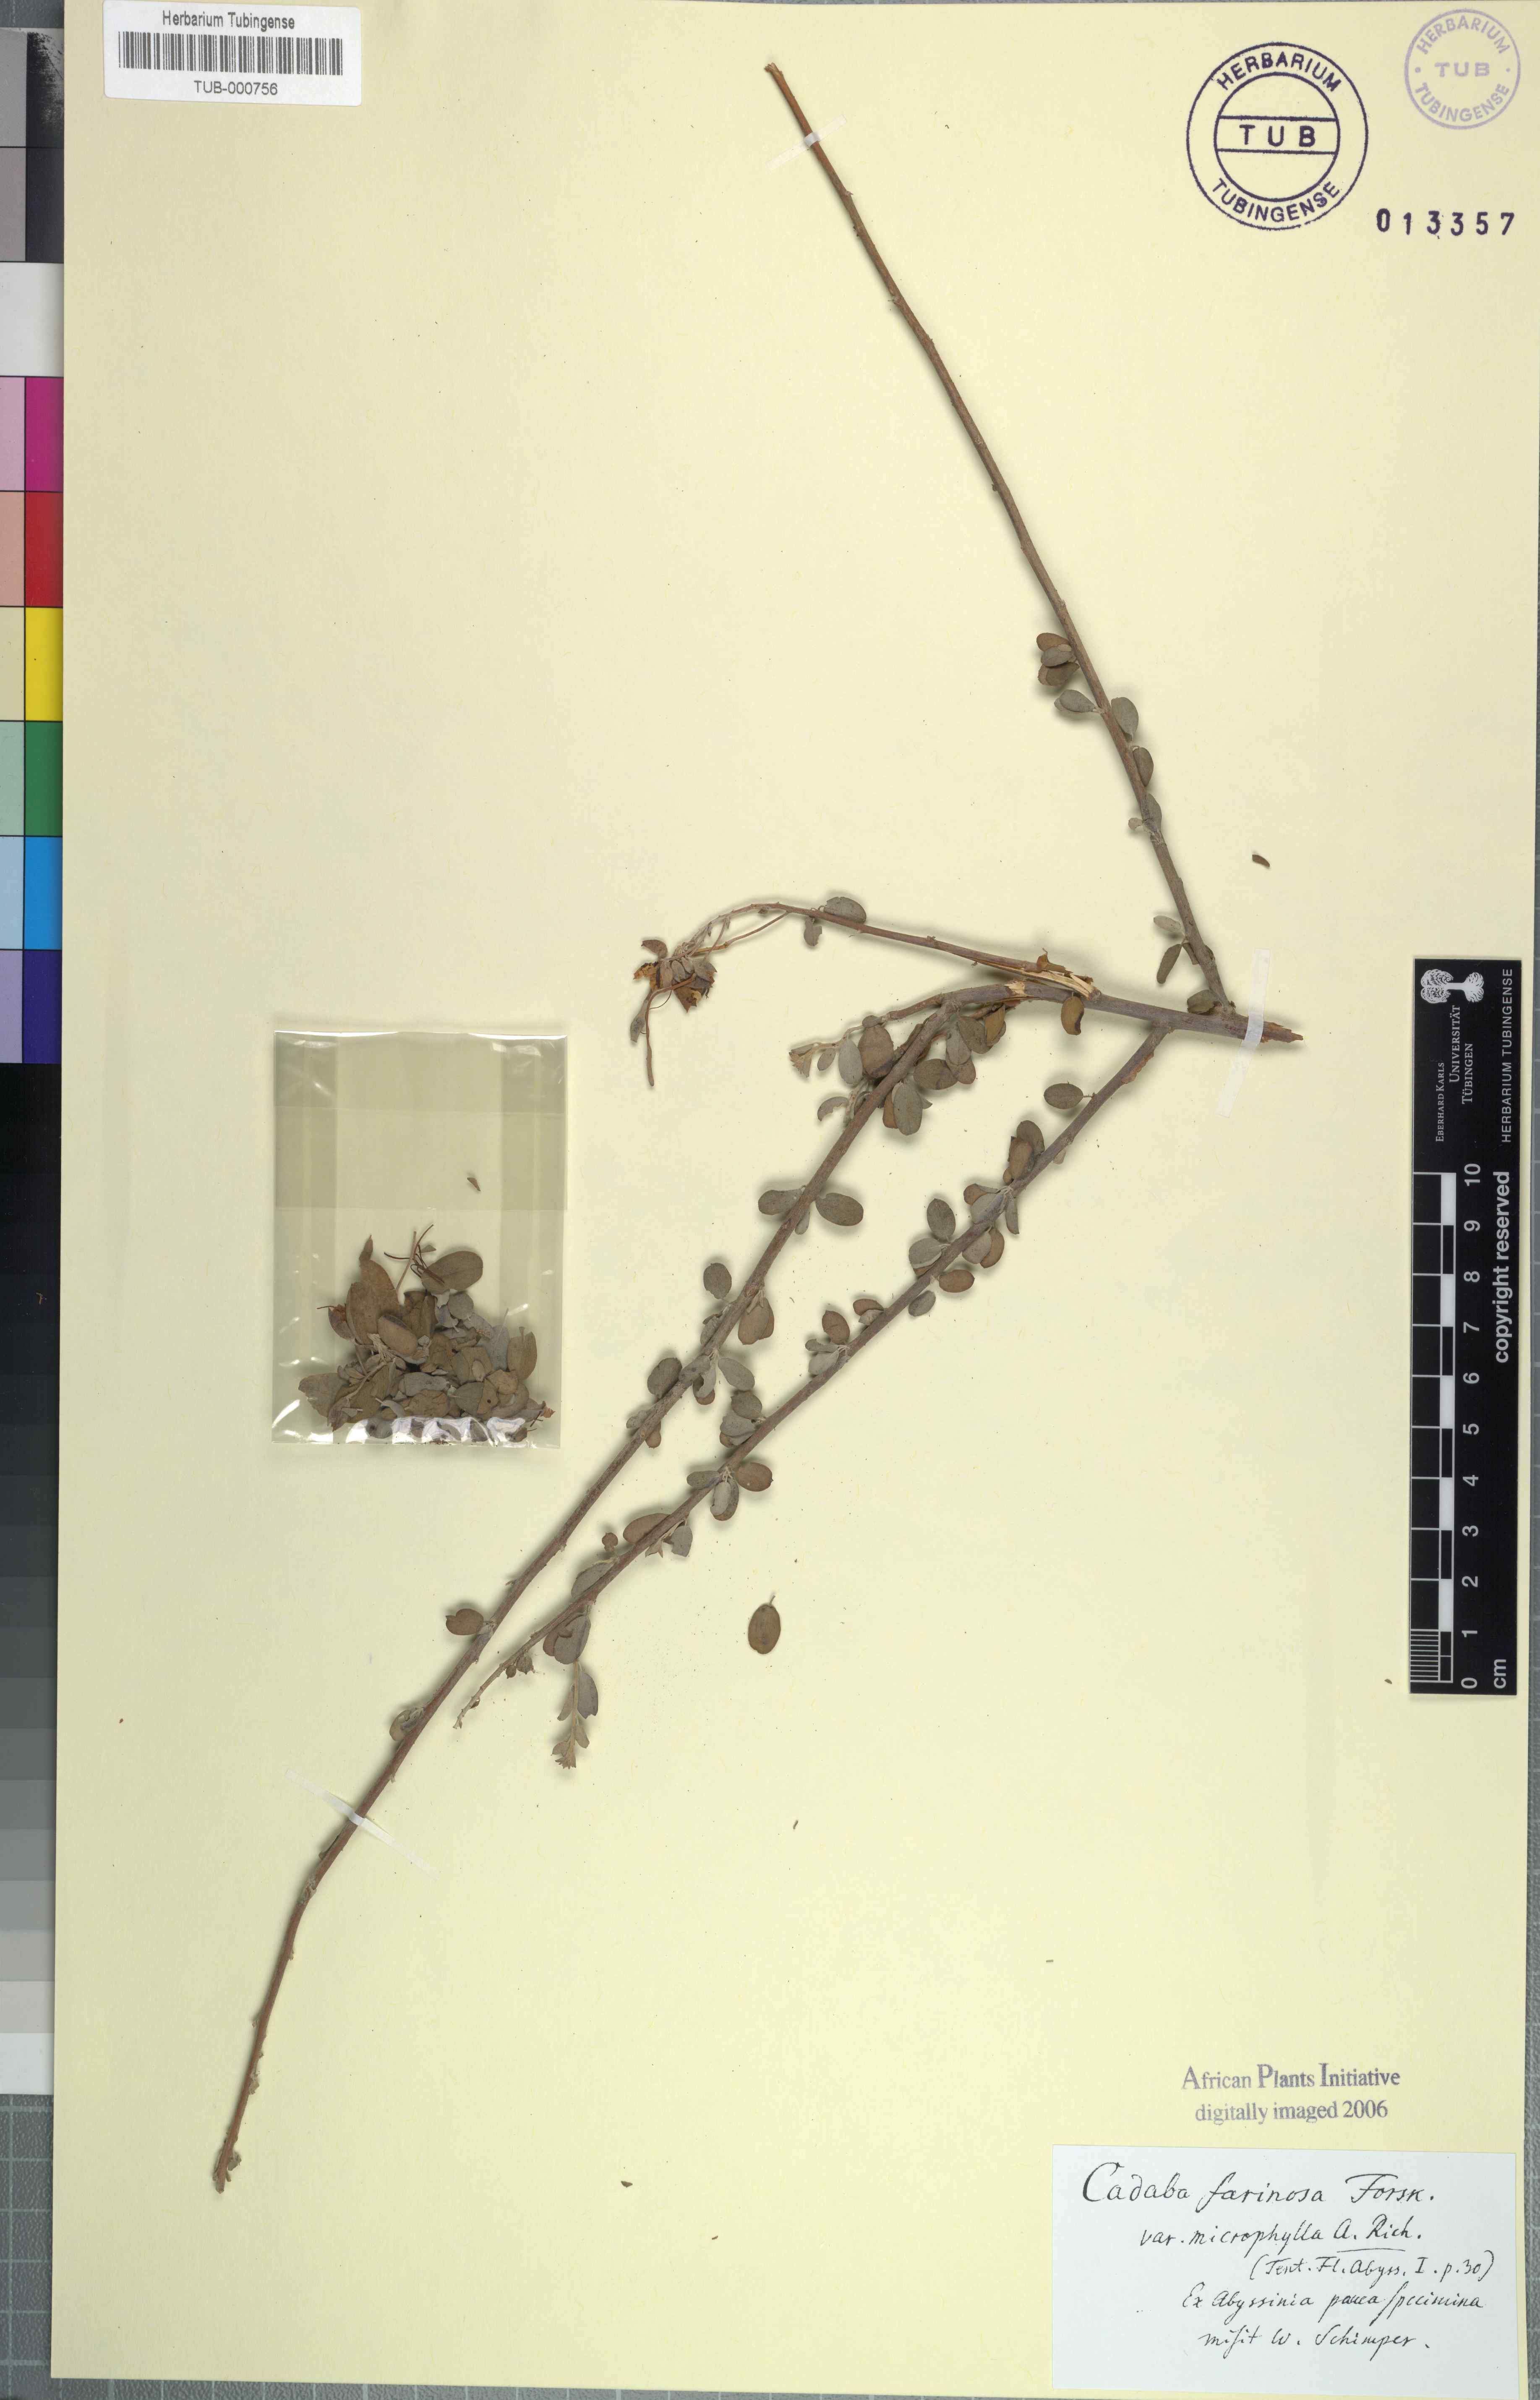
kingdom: Plantae
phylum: Tracheophyta
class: Magnoliopsida
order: Brassicales
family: Capparaceae
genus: Cadaba
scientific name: Cadaba farinosa
